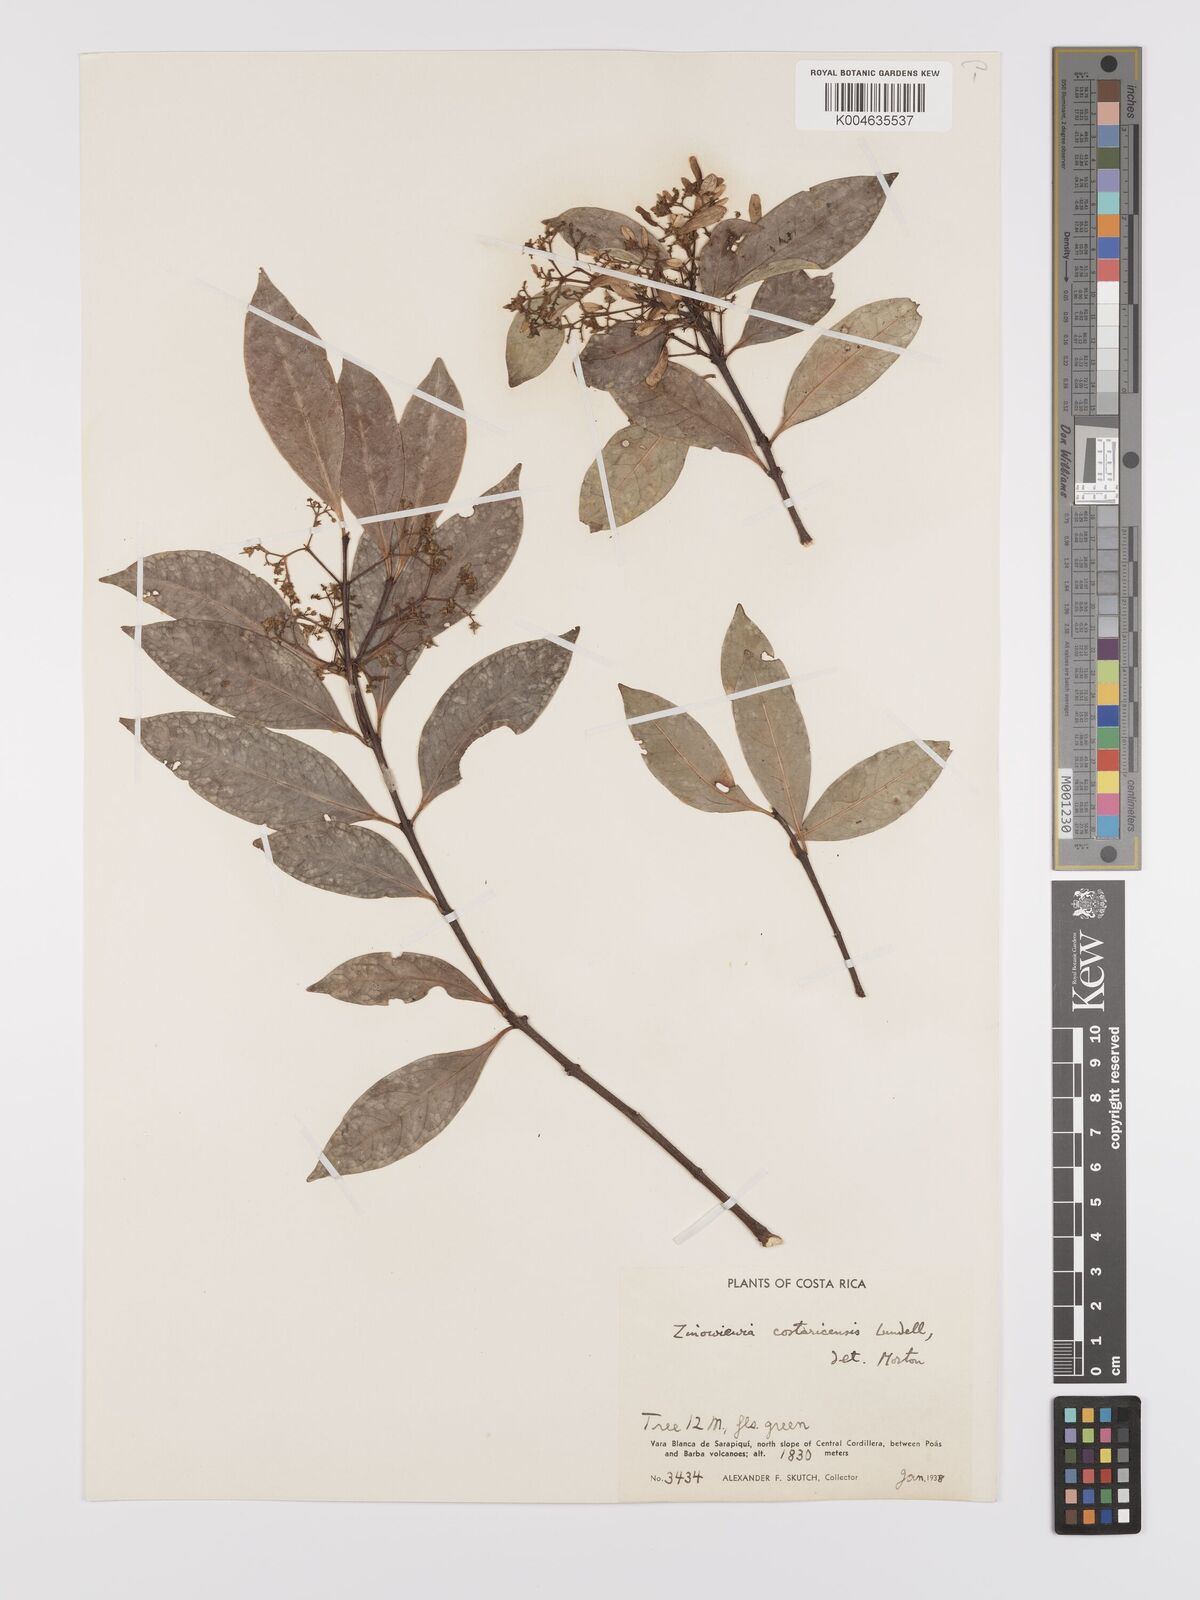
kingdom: Plantae
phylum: Tracheophyta
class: Magnoliopsida
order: Celastrales
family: Celastraceae
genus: Zinowiewia
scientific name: Zinowiewia integerrima
